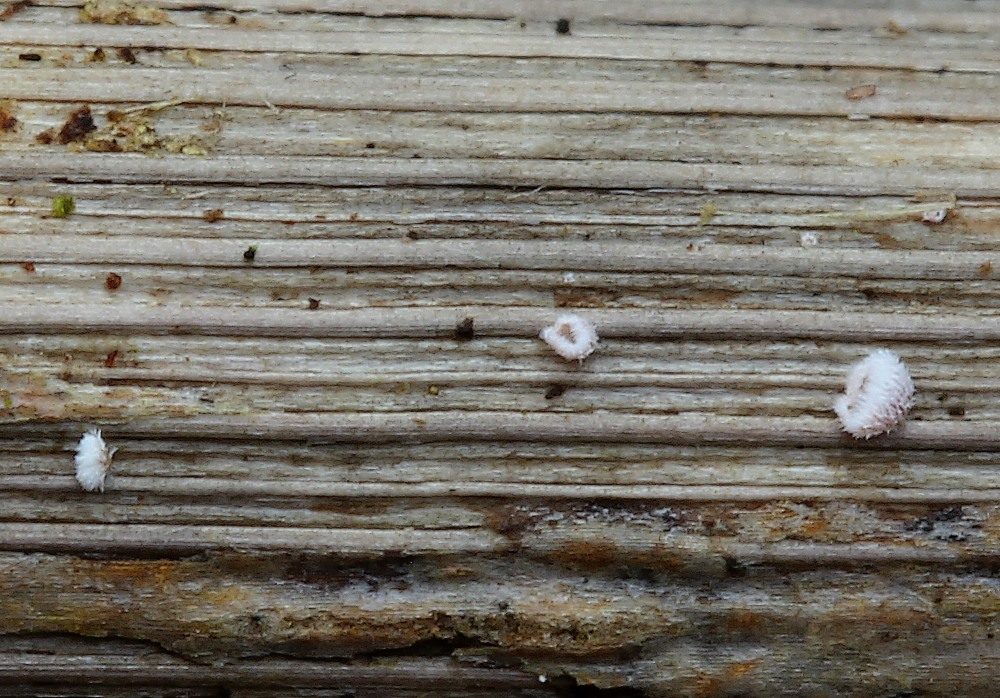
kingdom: Fungi
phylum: Basidiomycota
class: Agaricomycetes
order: Agaricales
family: Niaceae
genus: Flagelloscypha
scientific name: Flagelloscypha
